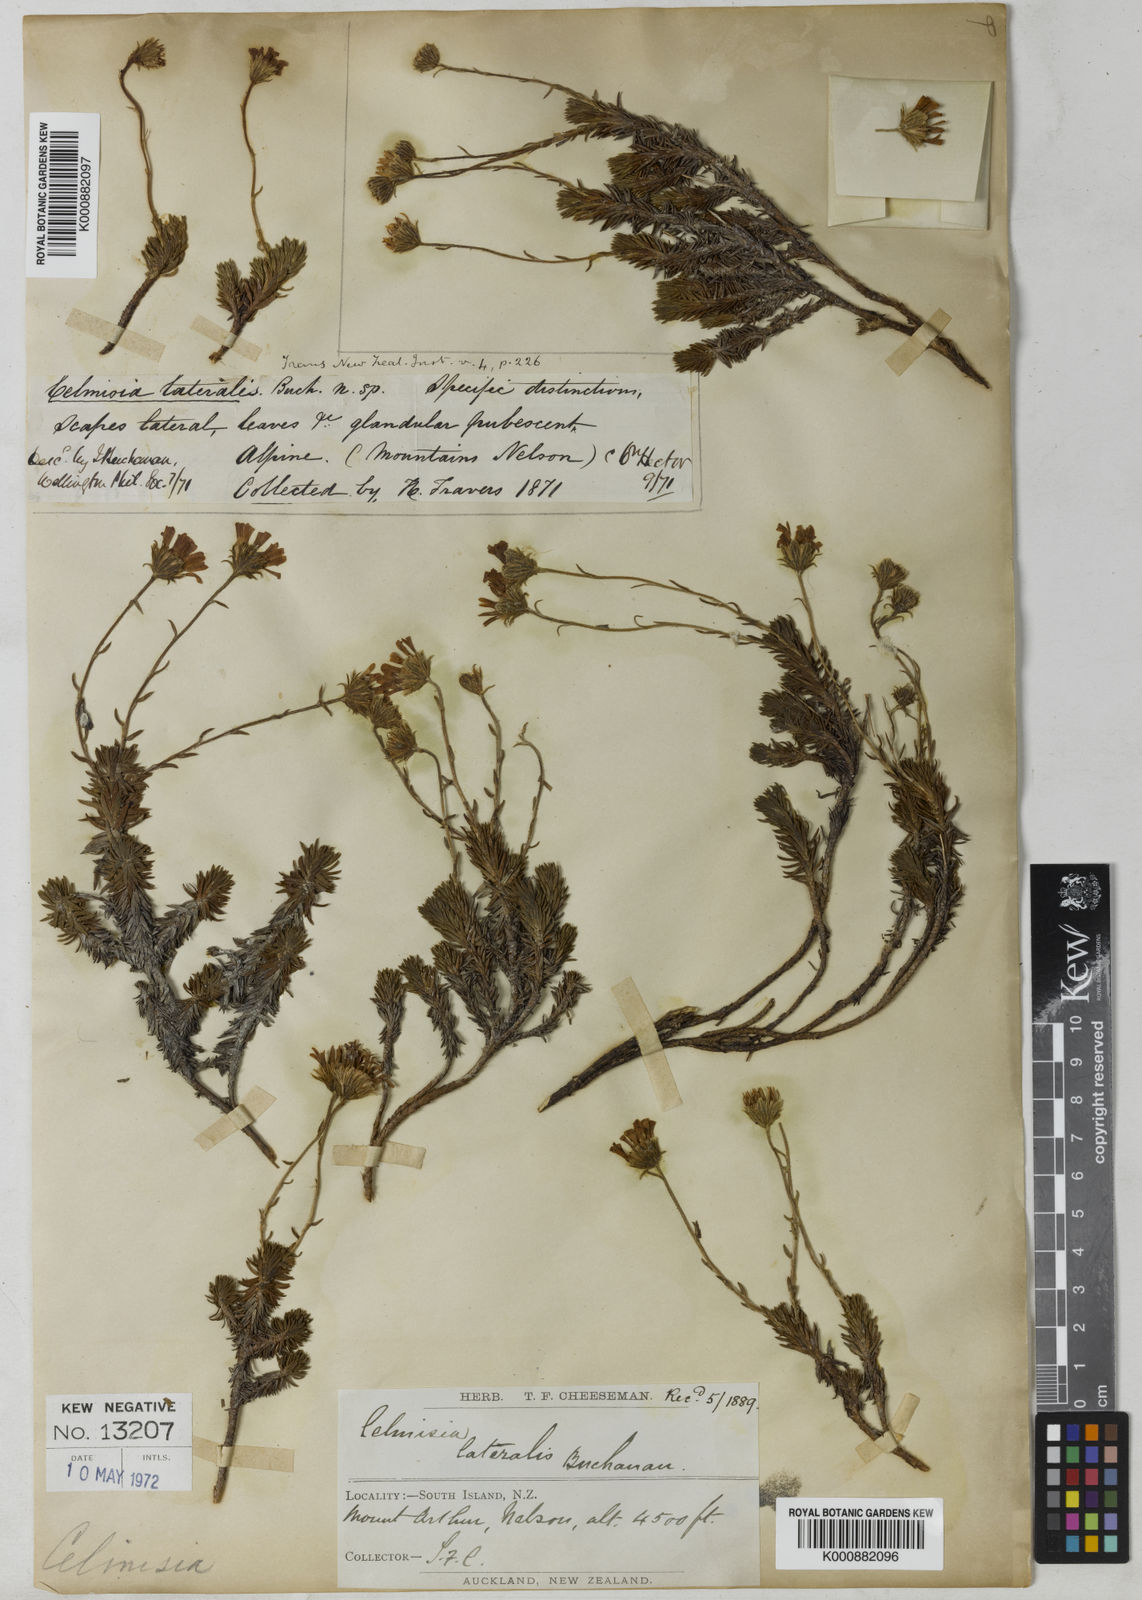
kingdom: Plantae
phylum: Tracheophyta
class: Magnoliopsida
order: Asterales
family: Asteraceae
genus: Celmisia
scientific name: Celmisia lateralis
